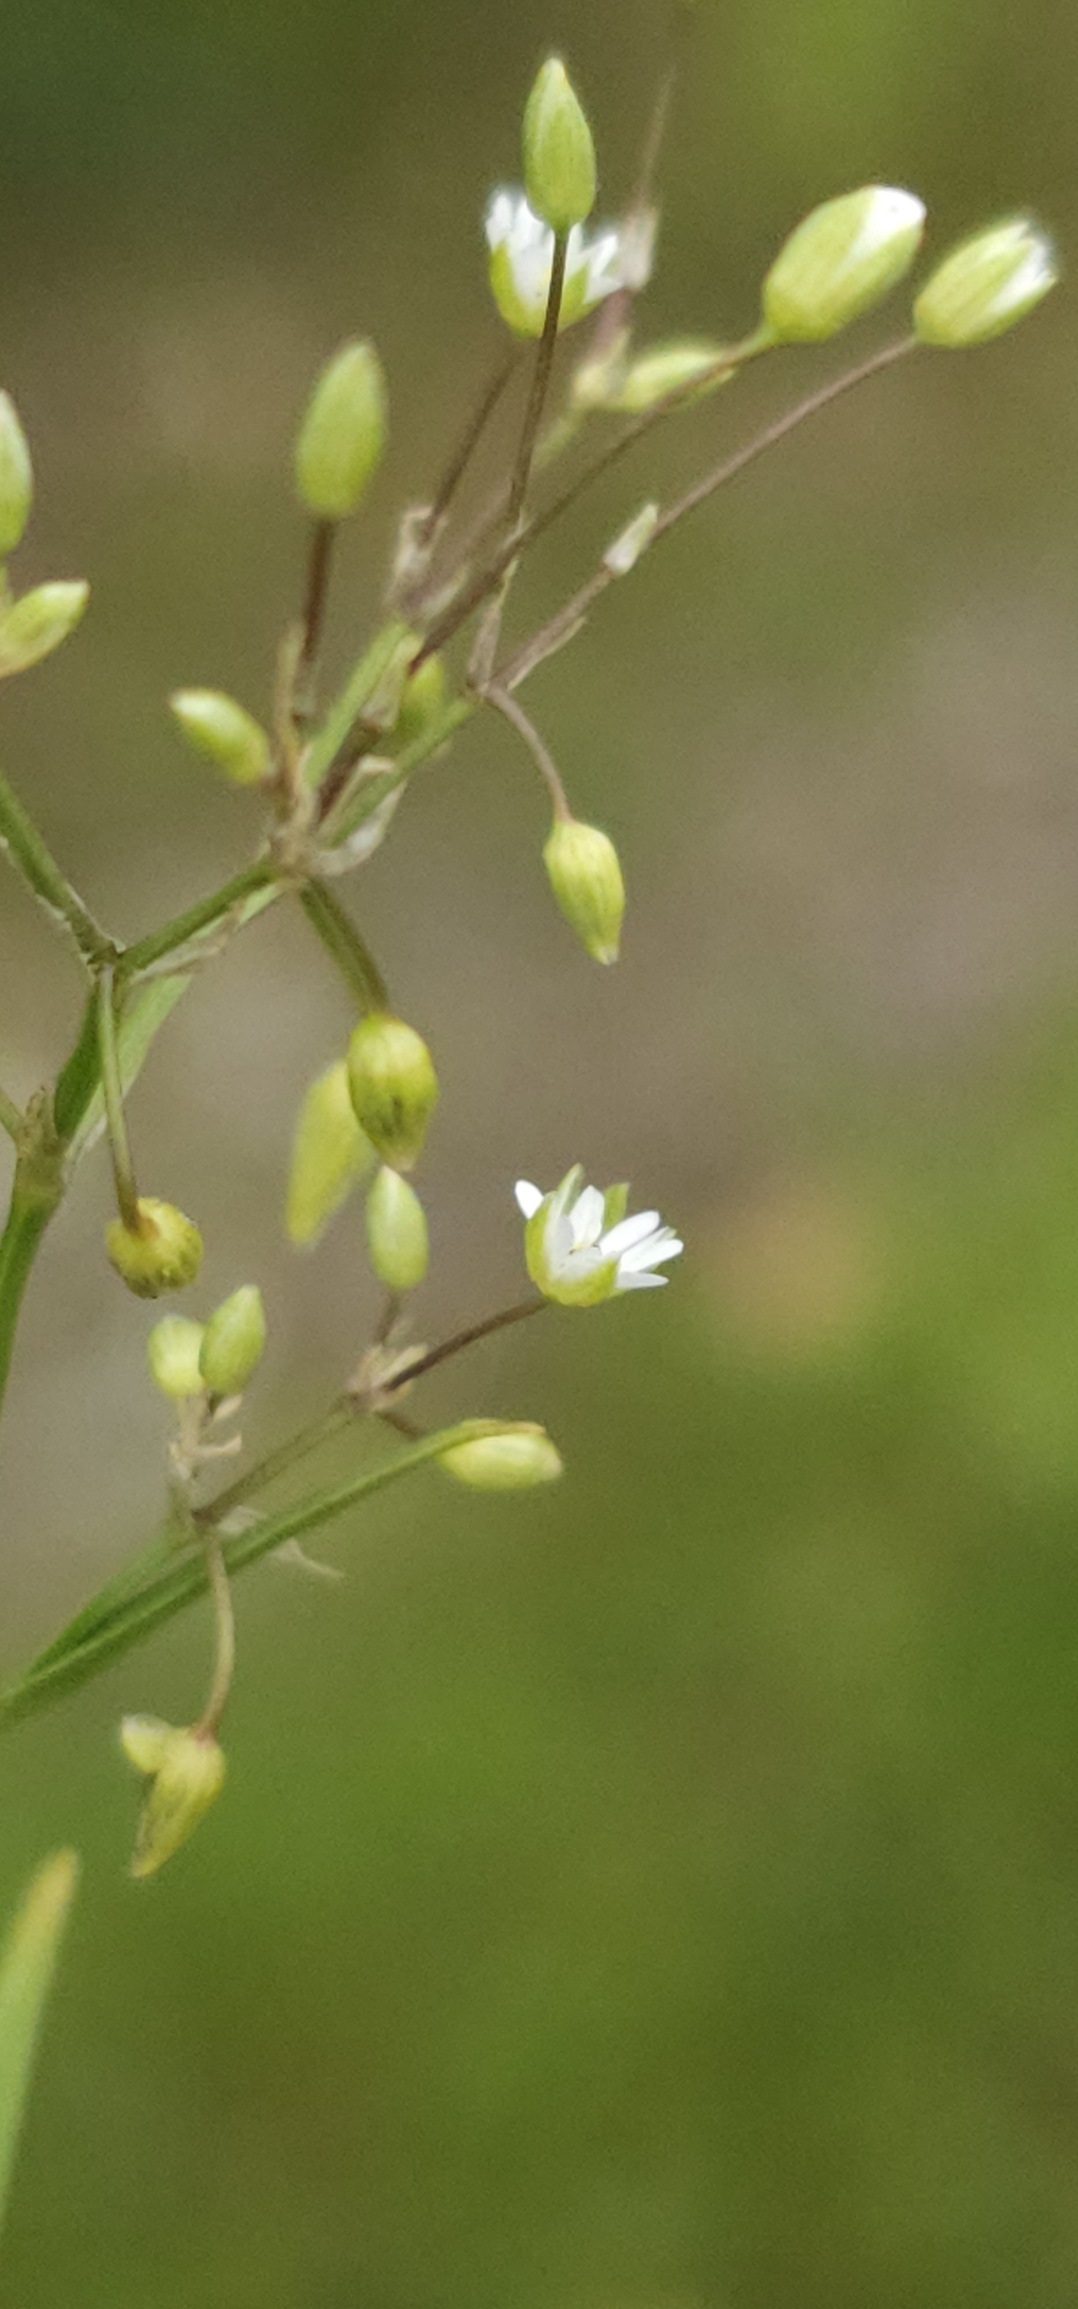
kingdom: Plantae
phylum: Tracheophyta
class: Magnoliopsida
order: Caryophyllales
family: Caryophyllaceae
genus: Stellaria
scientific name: Stellaria media
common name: Almindelig fuglegræs
